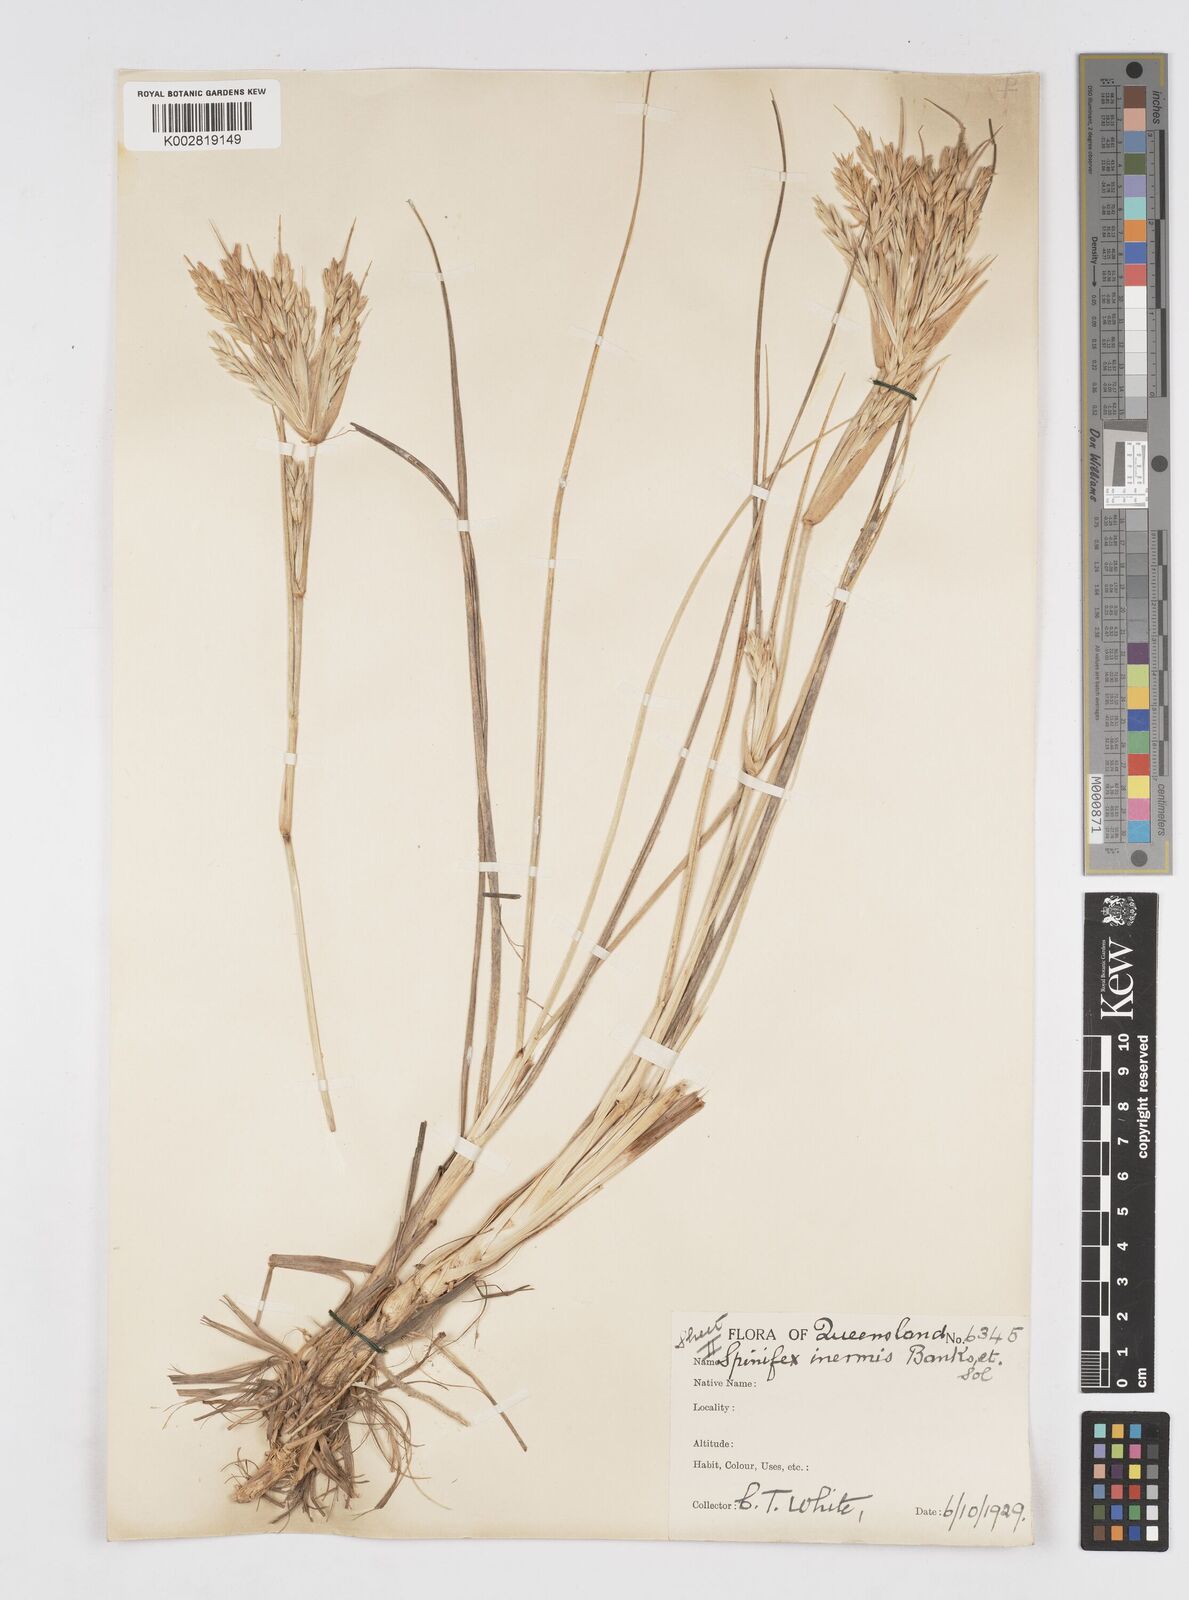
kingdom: Plantae
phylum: Tracheophyta
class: Liliopsida
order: Poales
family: Poaceae
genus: Spinifex
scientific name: Spinifex hirsutus
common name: Hairy spinifex
